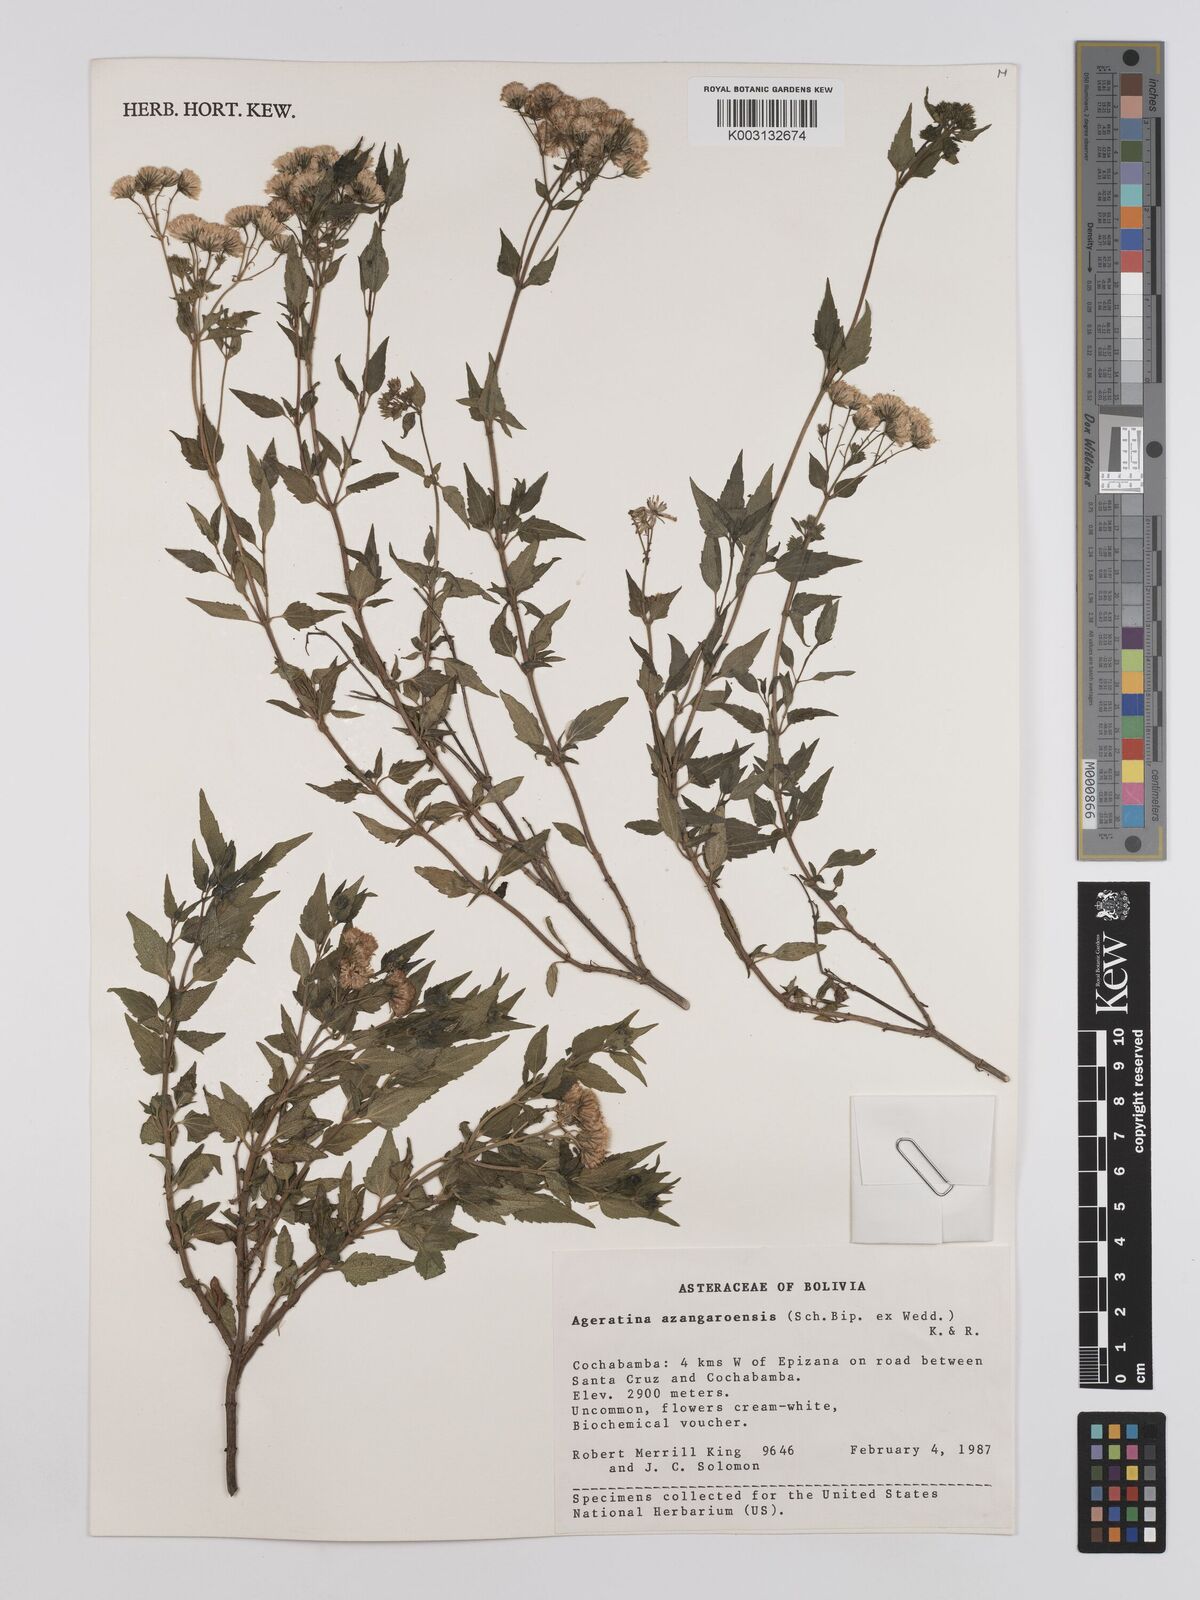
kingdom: Plantae
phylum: Tracheophyta
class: Magnoliopsida
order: Asterales
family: Asteraceae
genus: Ageratina
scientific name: Ageratina glechonophylla
